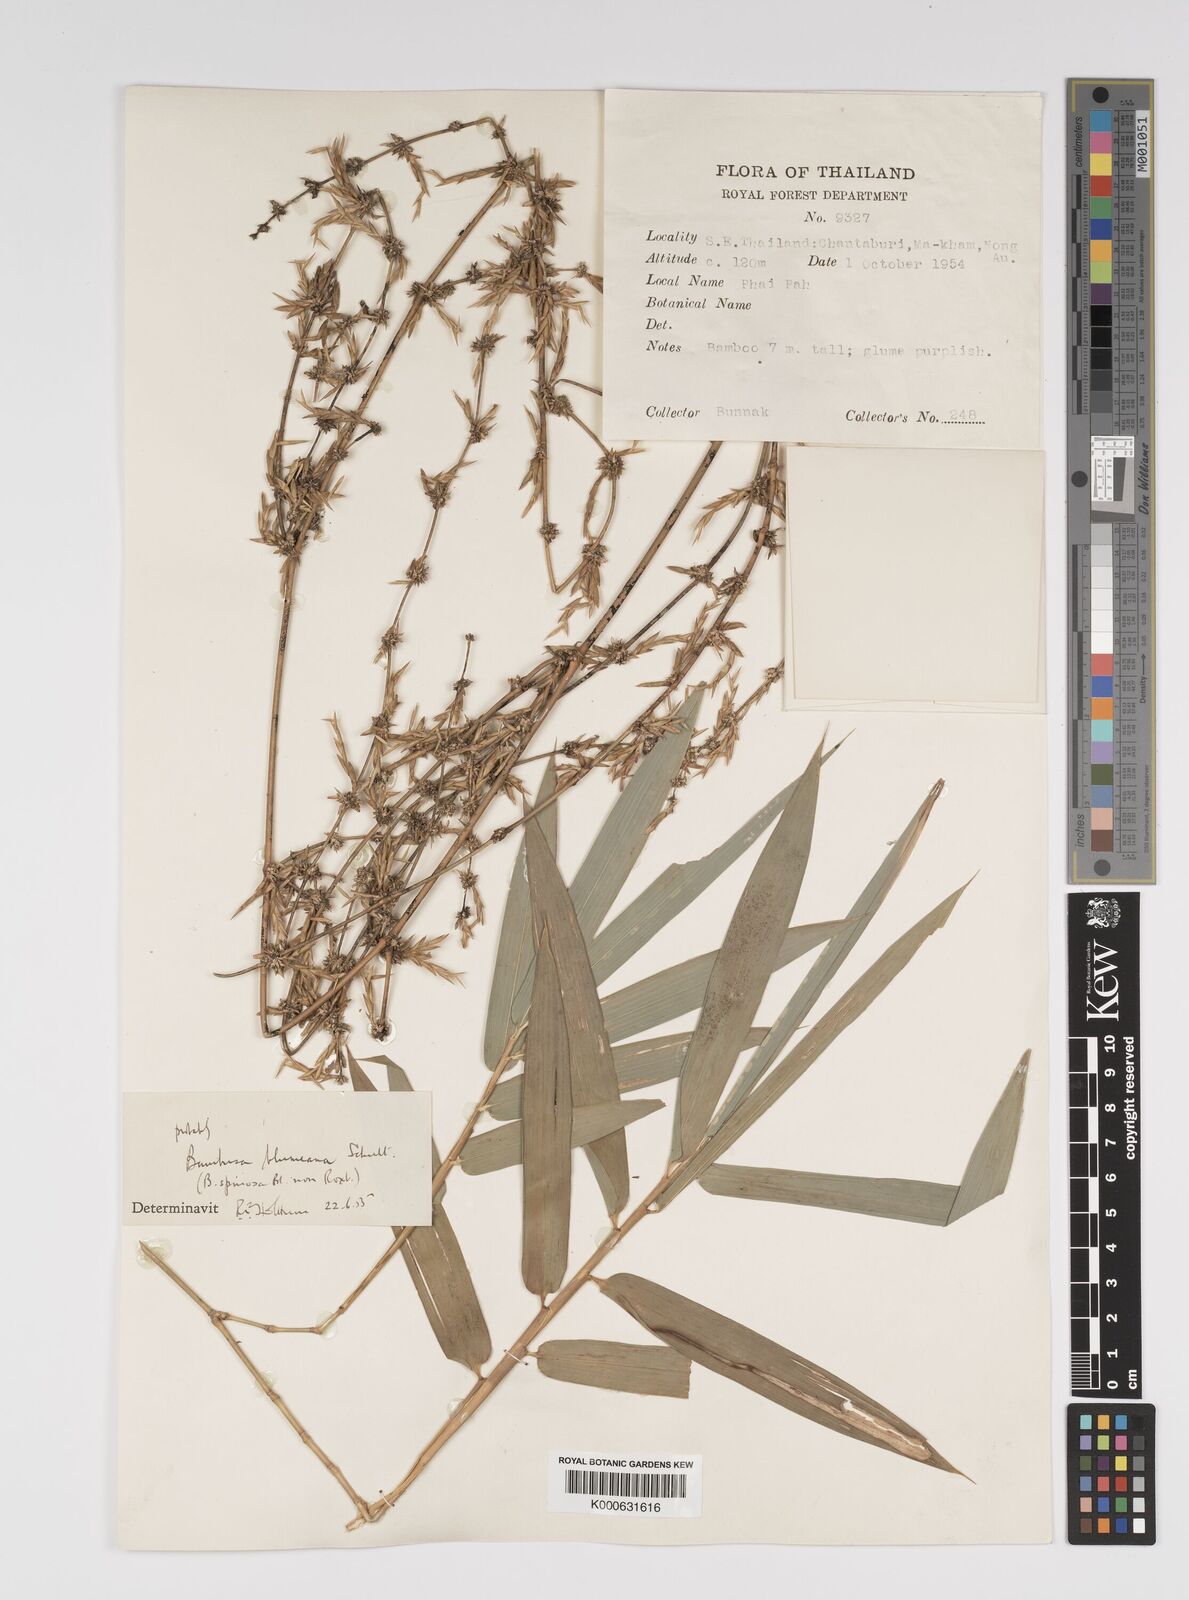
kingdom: Plantae
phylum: Tracheophyta
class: Liliopsida
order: Poales
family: Poaceae
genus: Bambusa
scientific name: Bambusa spinosa
